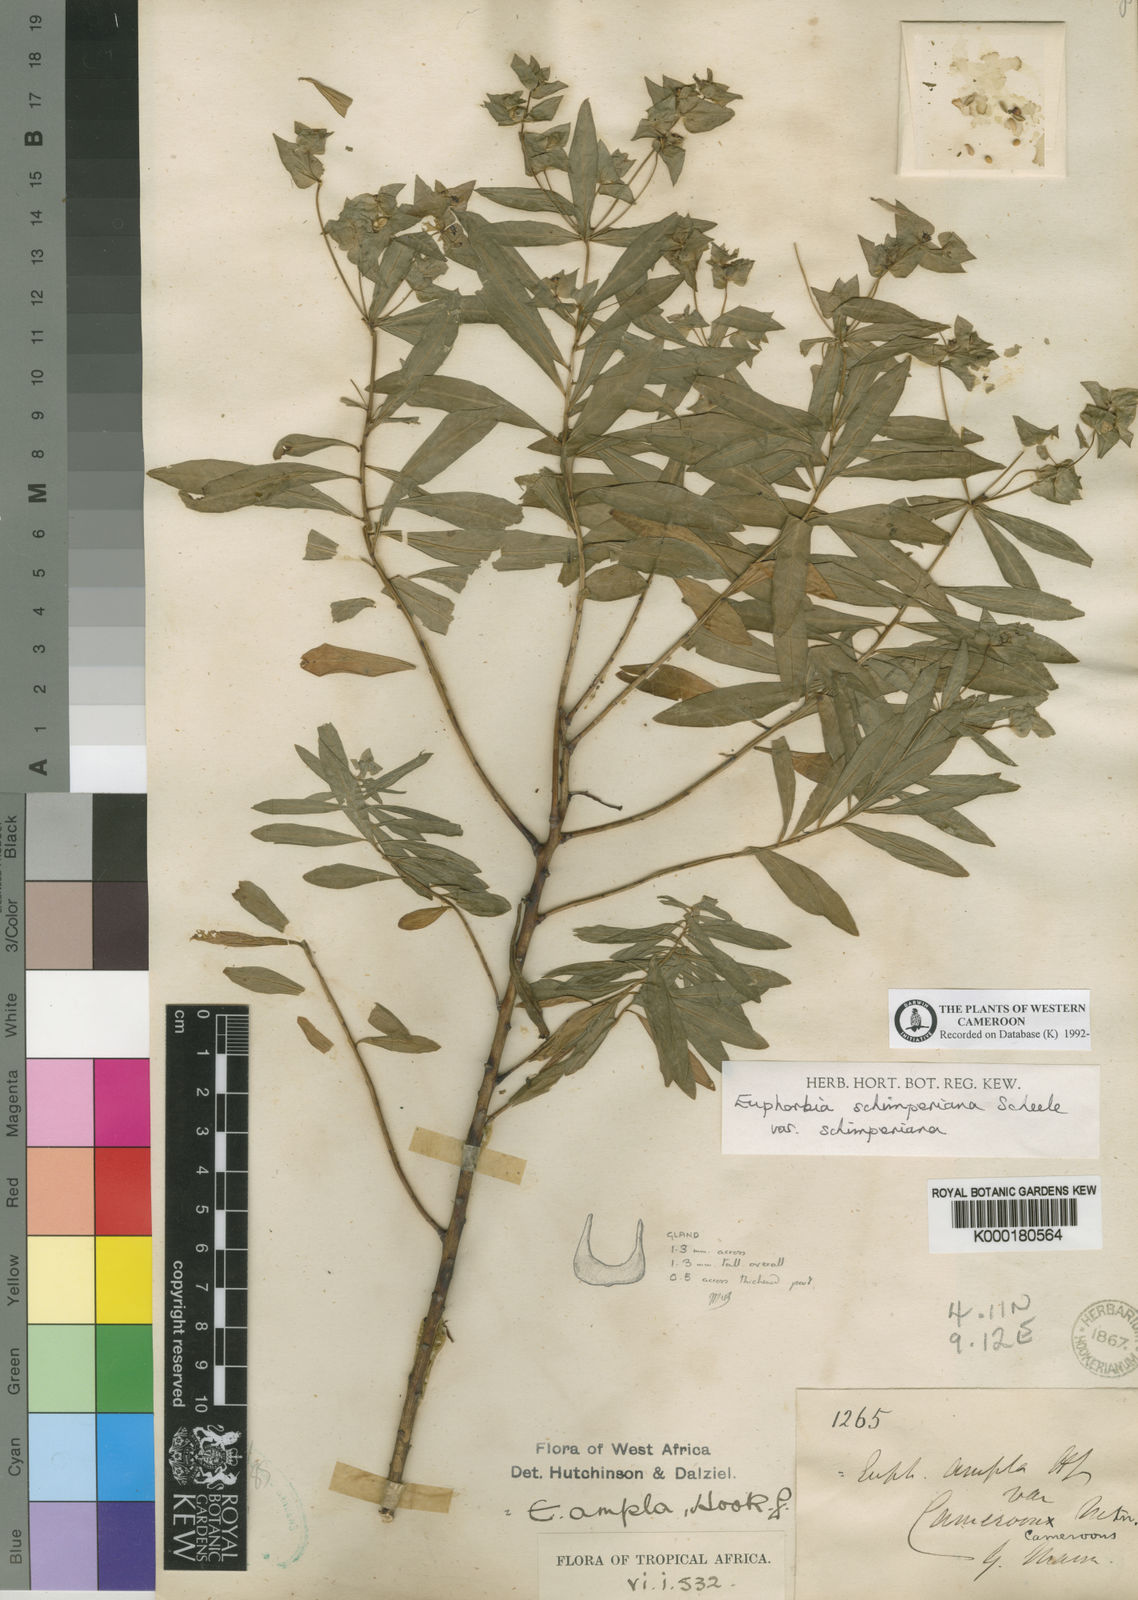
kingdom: Plantae
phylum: Tracheophyta
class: Magnoliopsida
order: Malpighiales
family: Euphorbiaceae
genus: Euphorbia
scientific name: Euphorbia schimperiana
